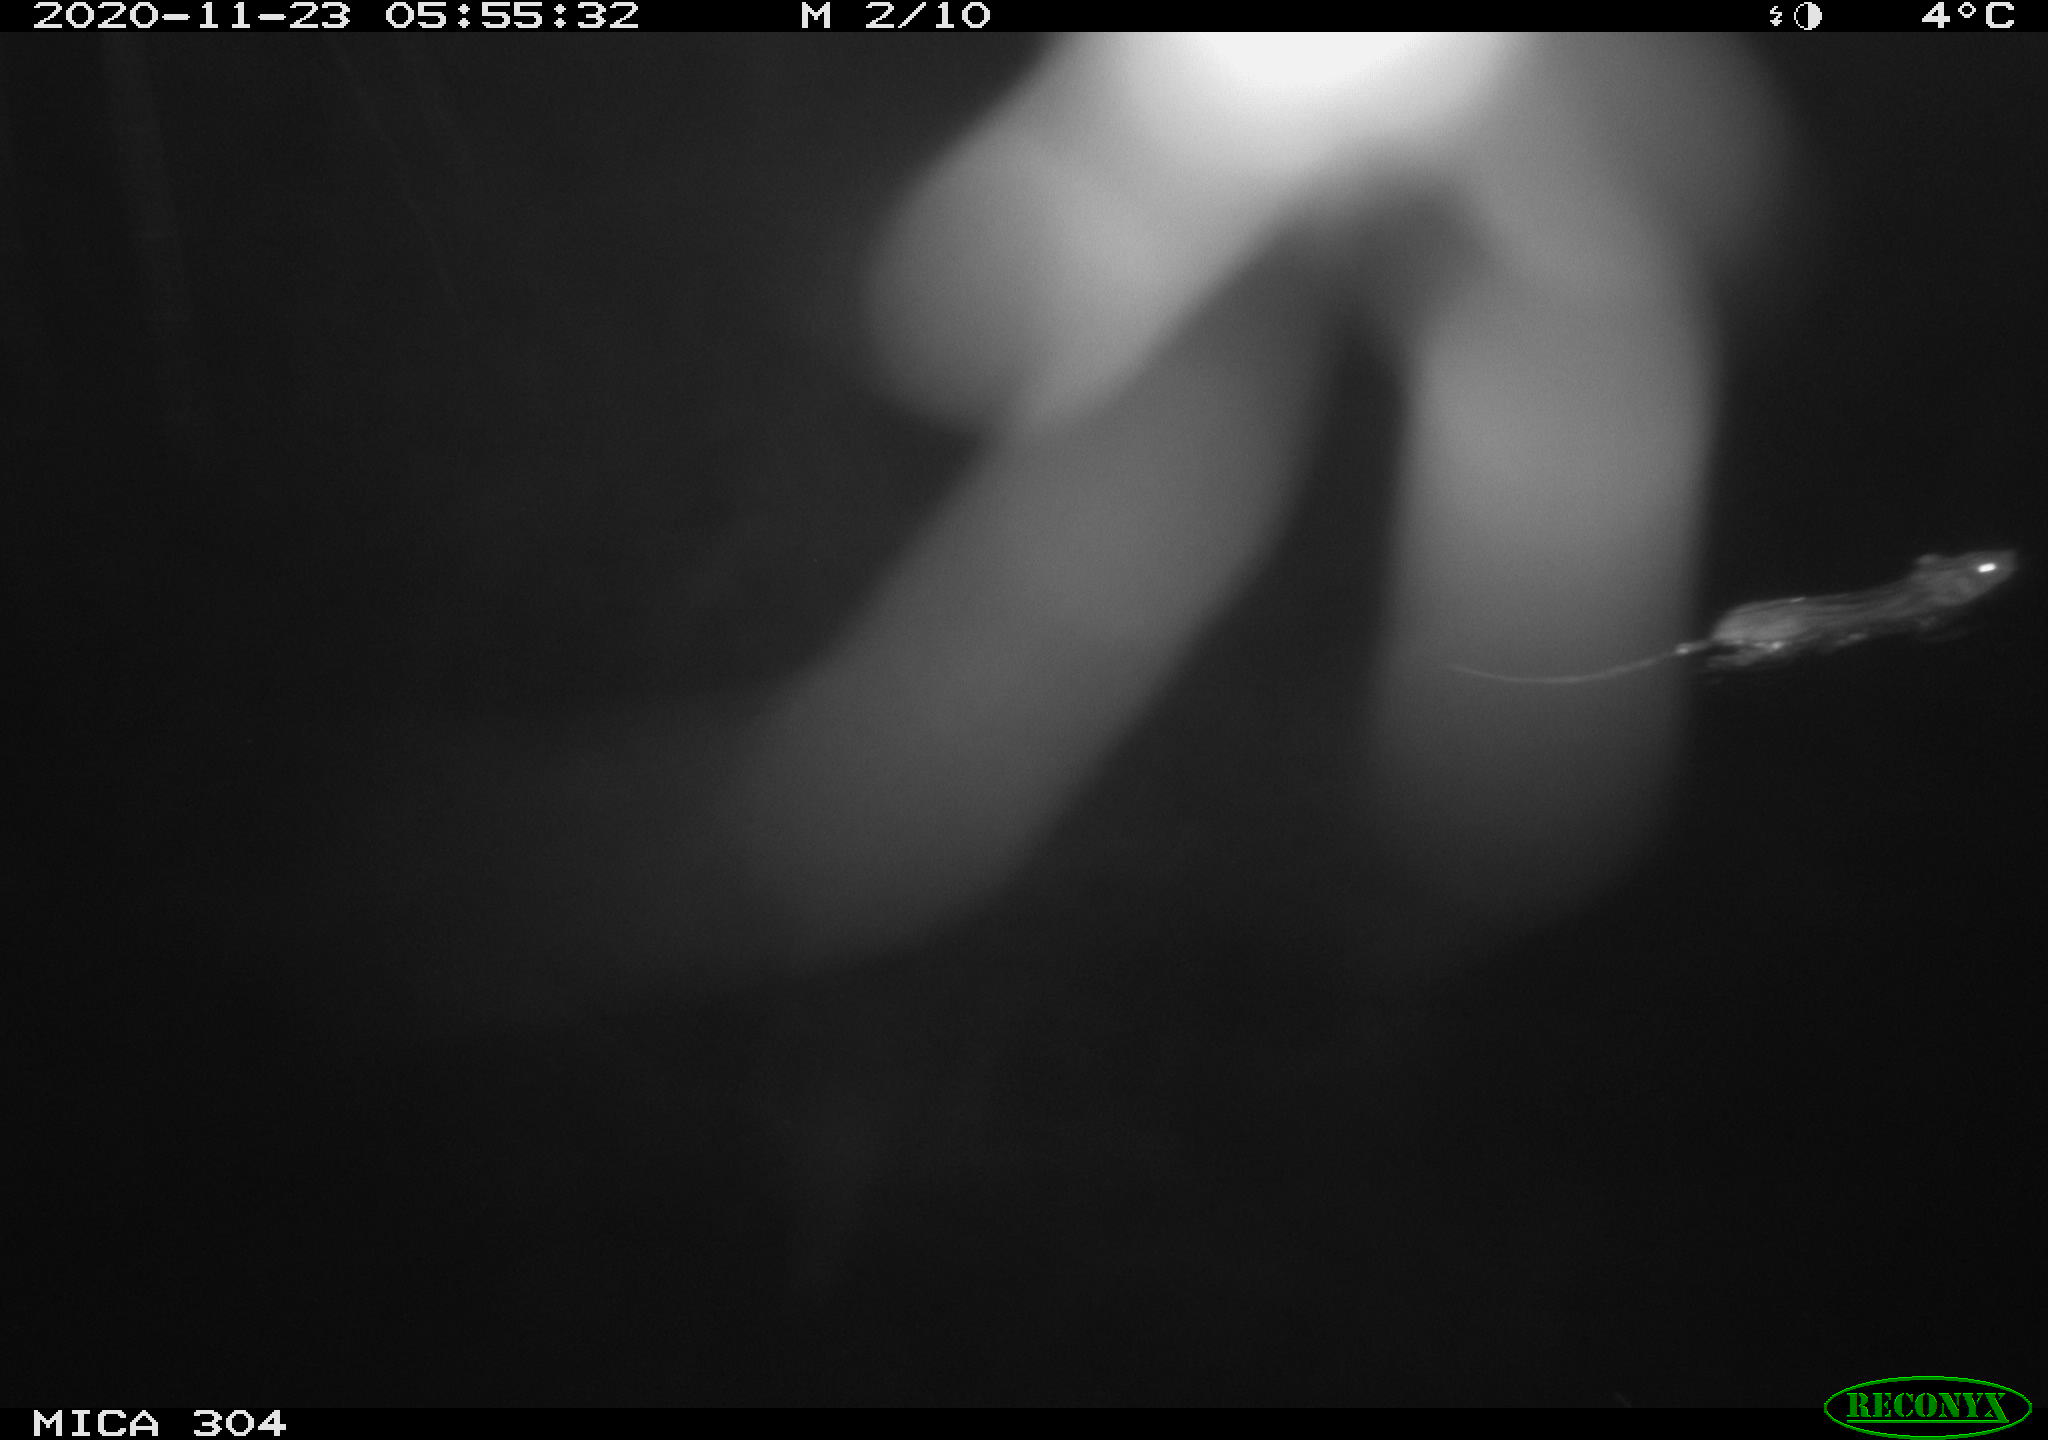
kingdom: Animalia
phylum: Chordata
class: Mammalia
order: Rodentia
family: Muridae
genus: Rattus
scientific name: Rattus norvegicus
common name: Brown rat
